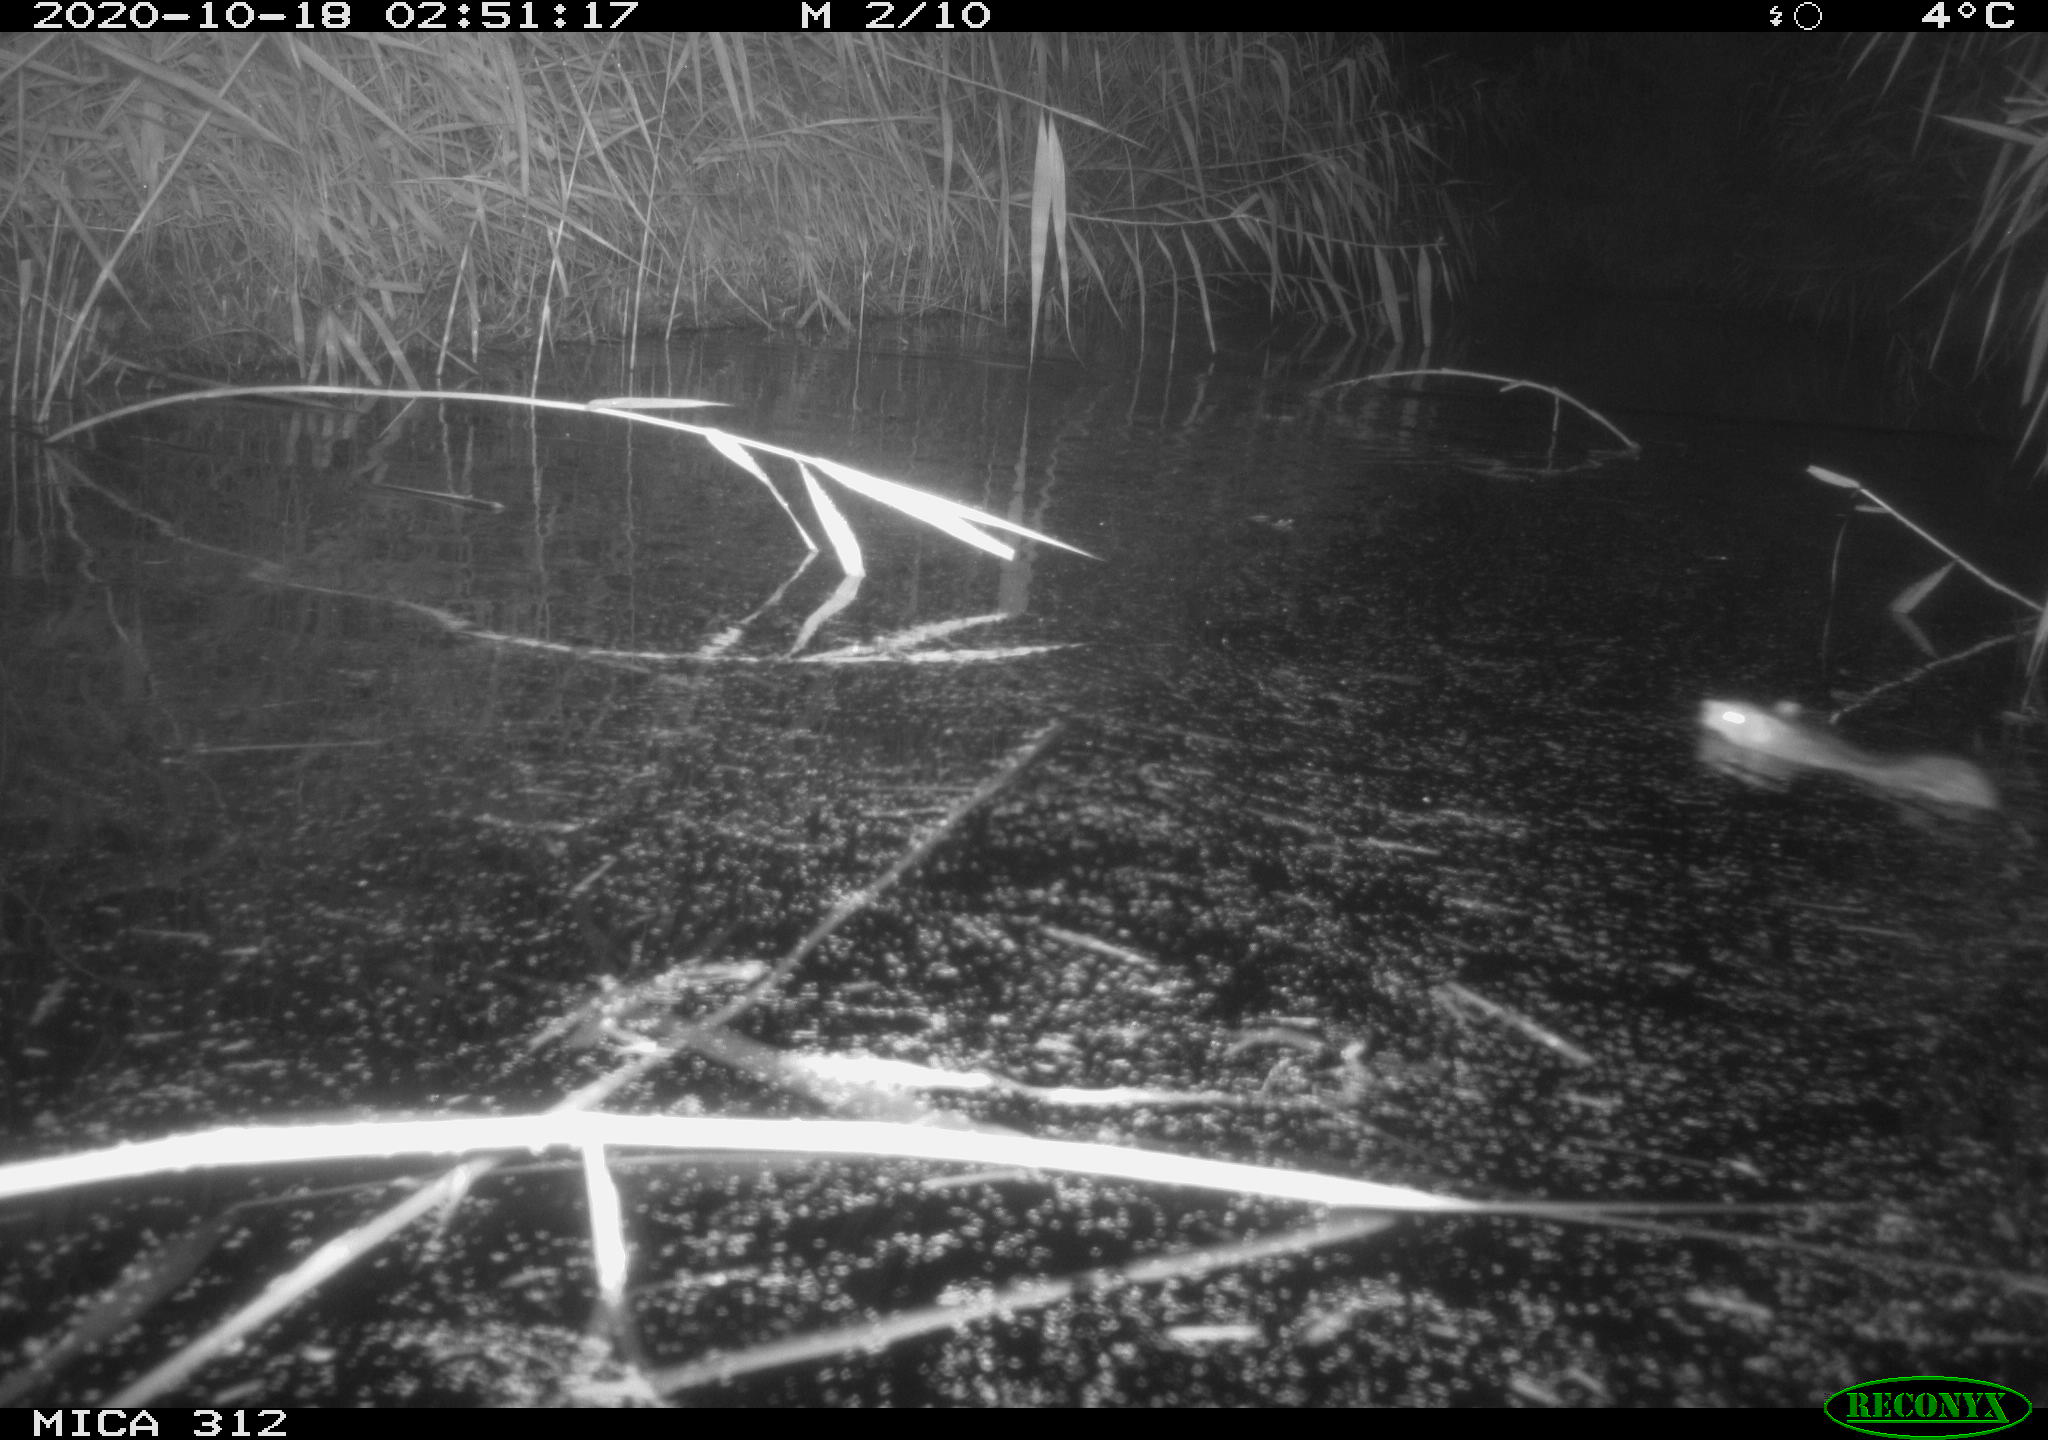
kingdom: Animalia
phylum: Chordata
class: Mammalia
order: Rodentia
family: Muridae
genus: Rattus
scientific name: Rattus norvegicus
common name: Brown rat
